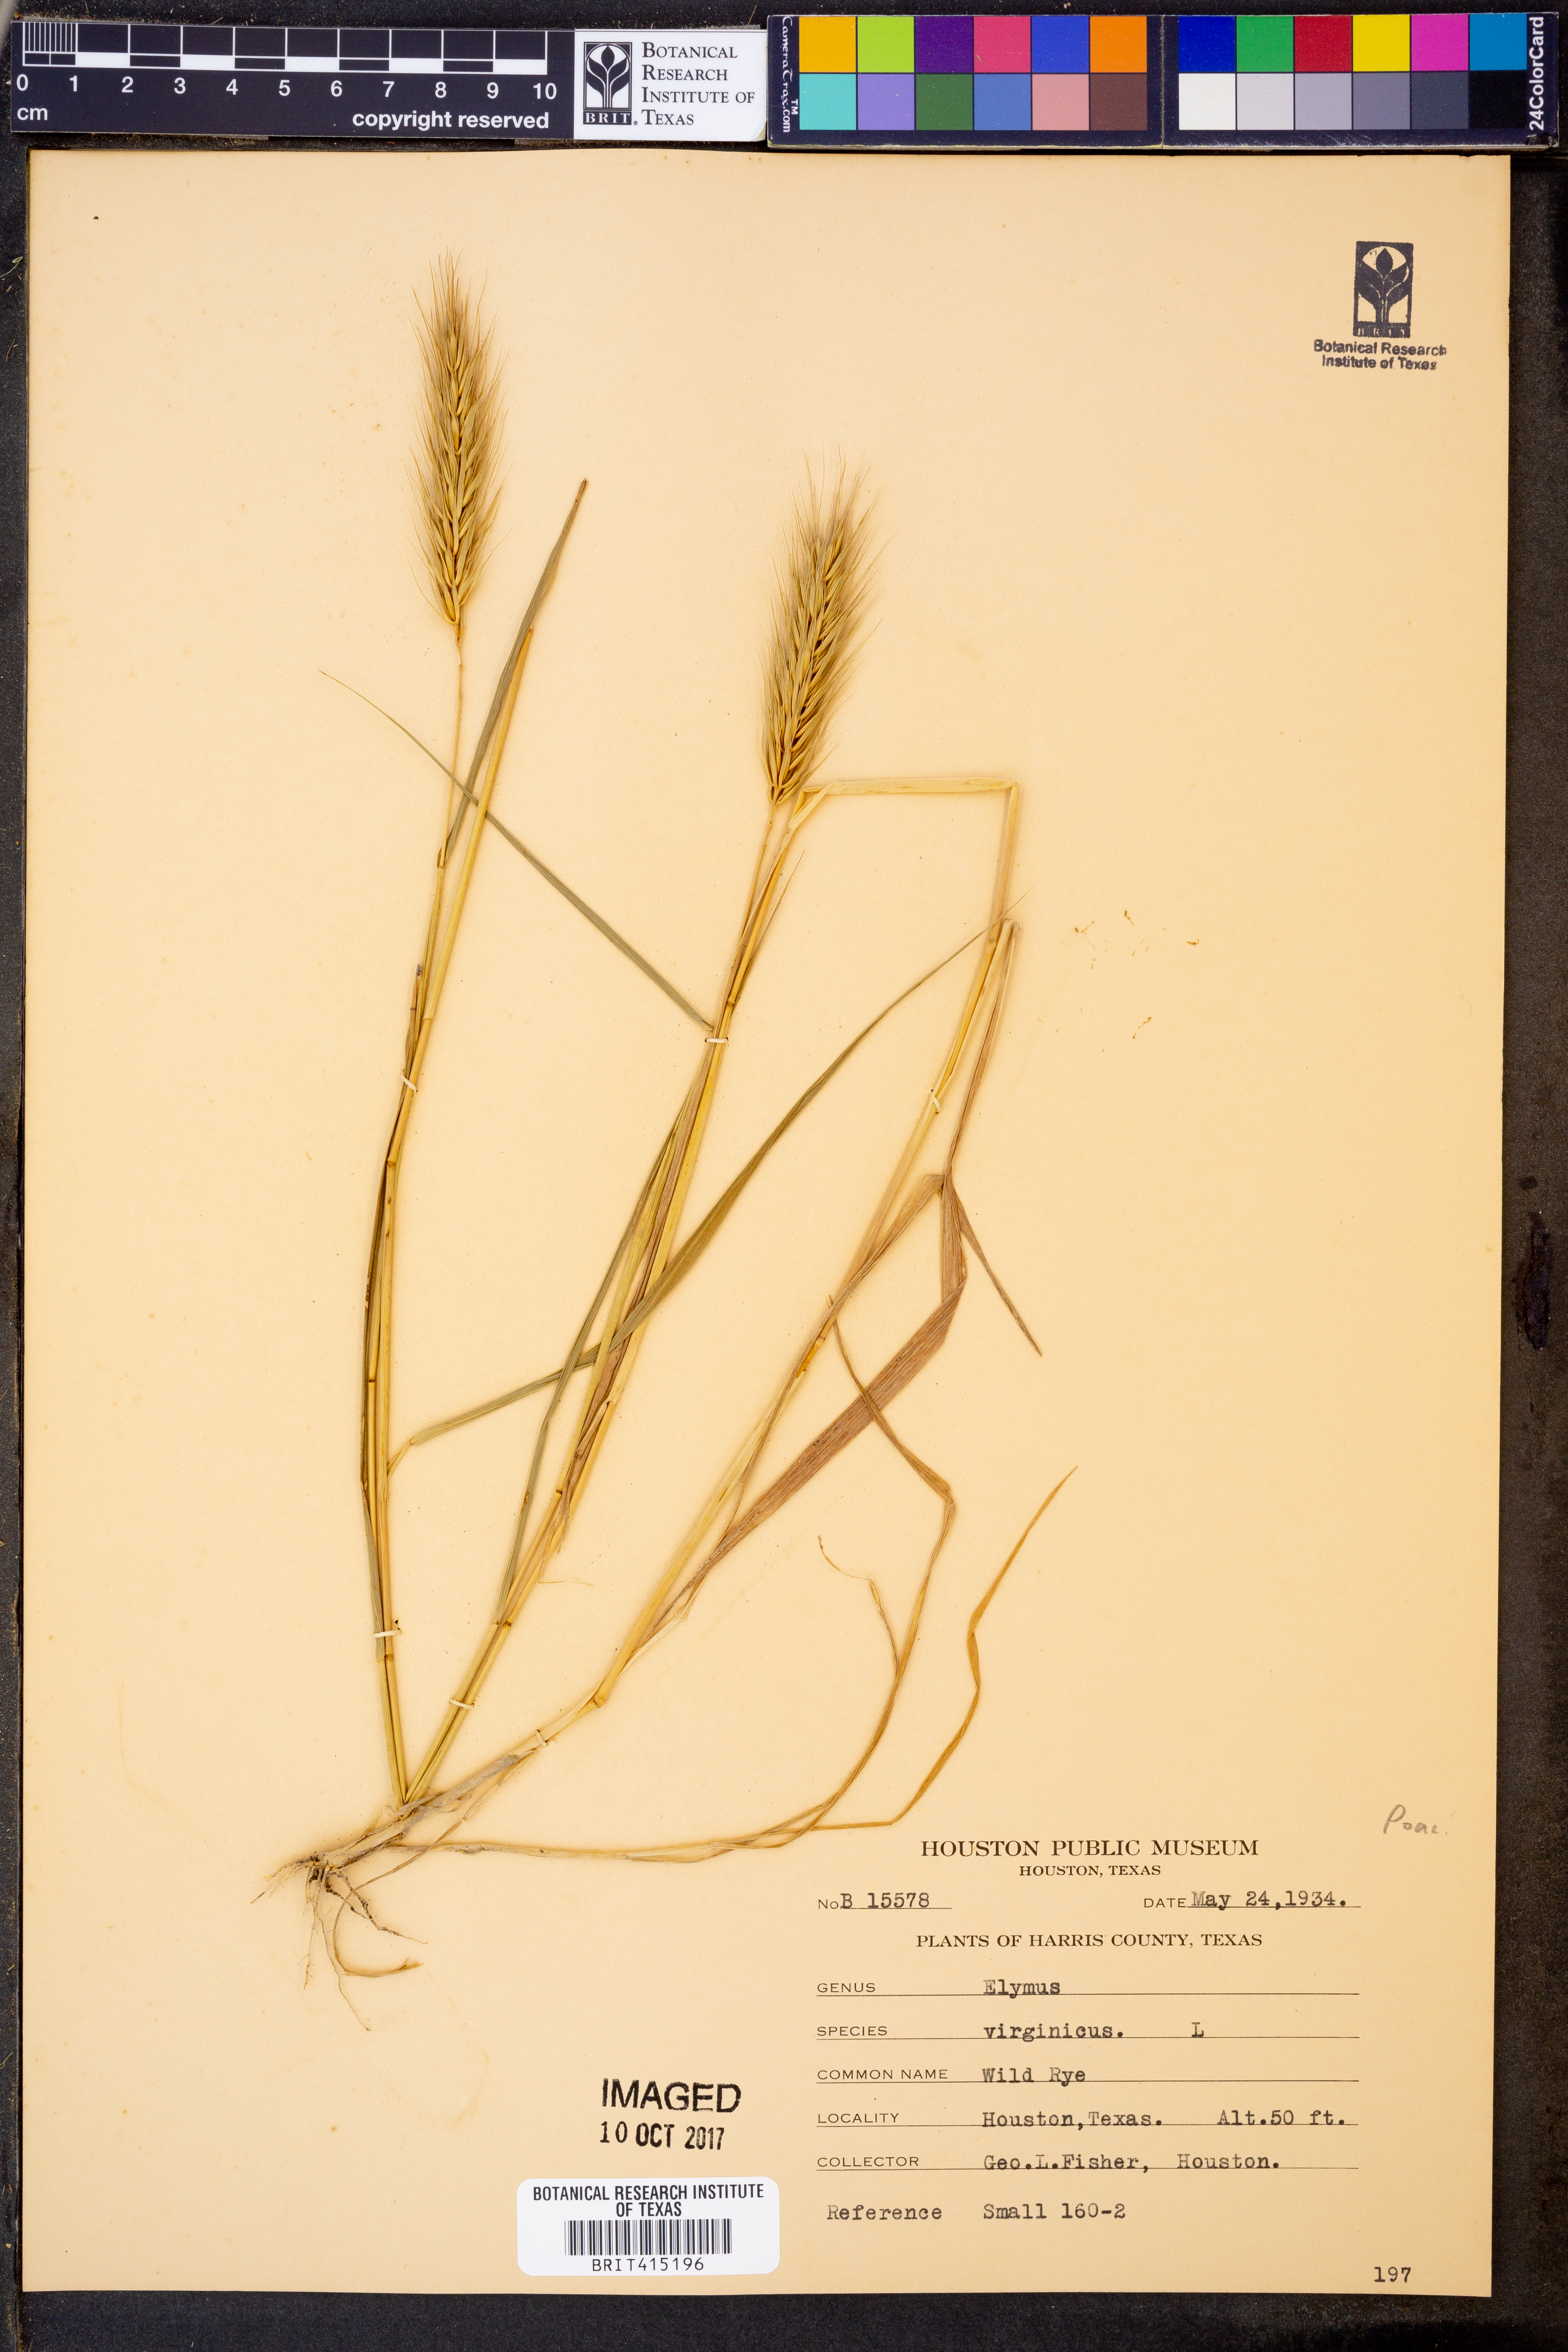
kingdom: Plantae
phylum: Tracheophyta
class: Liliopsida
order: Poales
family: Poaceae
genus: Elymus
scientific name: Elymus virginicus
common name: Common eastern wildrye
